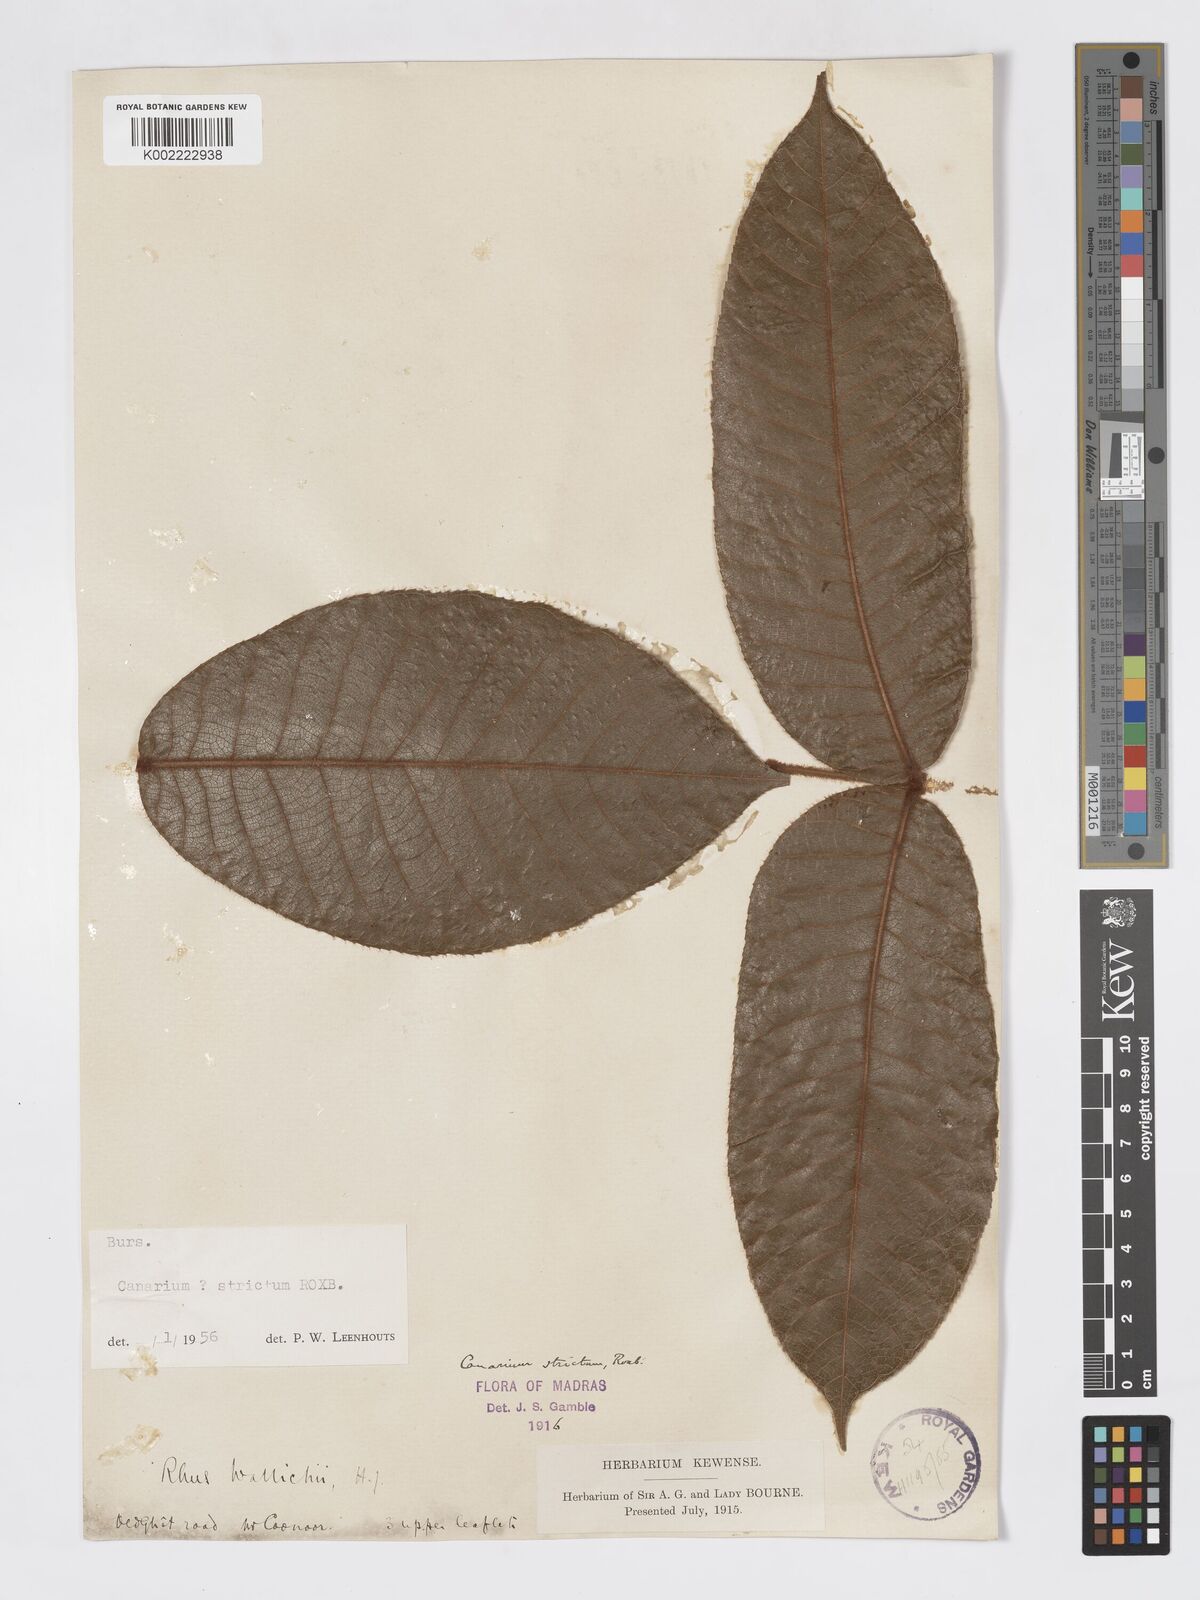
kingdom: Plantae
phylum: Tracheophyta
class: Magnoliopsida
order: Sapindales
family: Burseraceae
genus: Canarium
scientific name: Canarium strictum
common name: Indian white-mahogany
